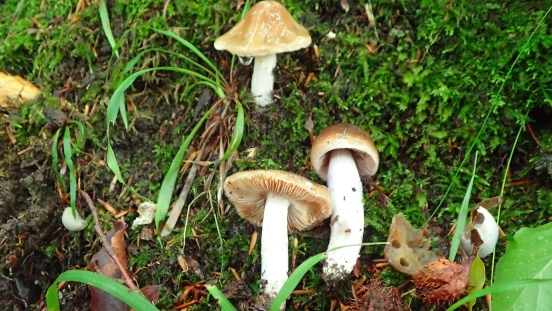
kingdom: Fungi
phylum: Basidiomycota
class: Agaricomycetes
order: Agaricales
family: Cortinariaceae
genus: Cortinarius
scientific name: Cortinarius elatior
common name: høj slørhat
